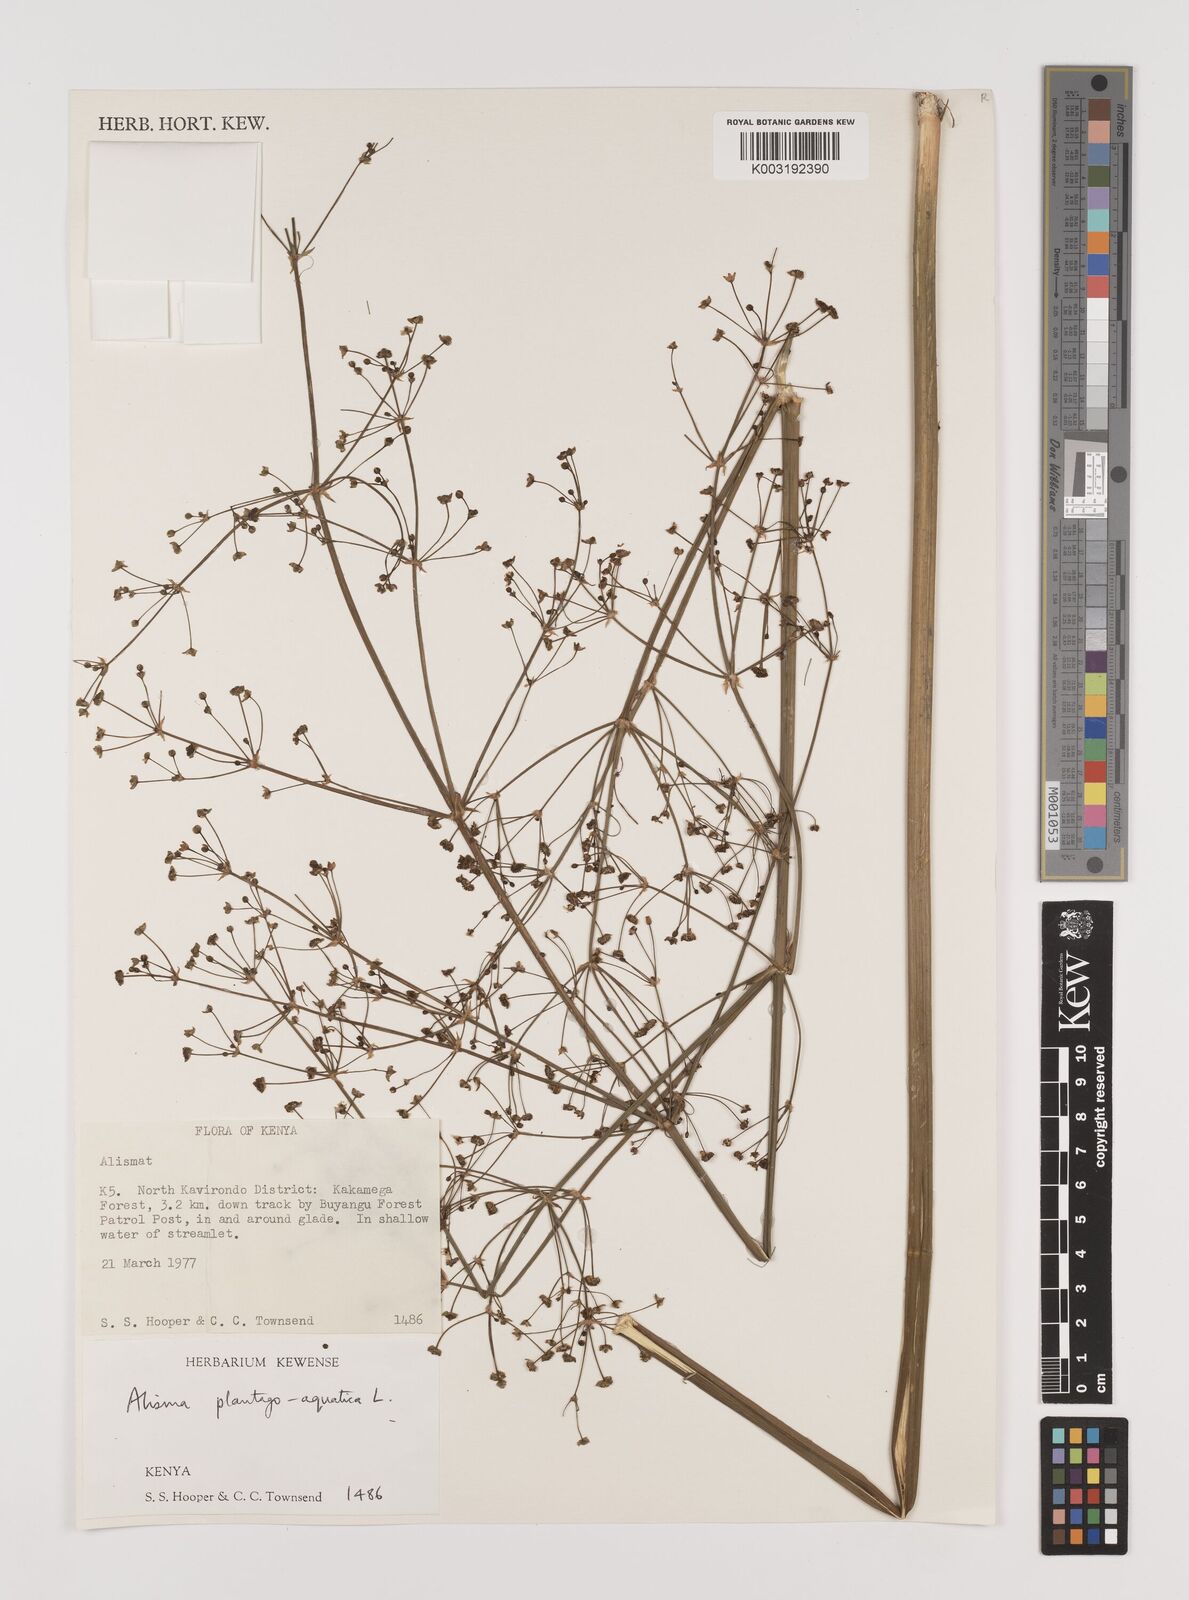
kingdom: Plantae
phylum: Tracheophyta
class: Liliopsida
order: Alismatales
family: Alismataceae
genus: Alisma
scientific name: Alisma plantago-aquatica
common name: Water-plantain
